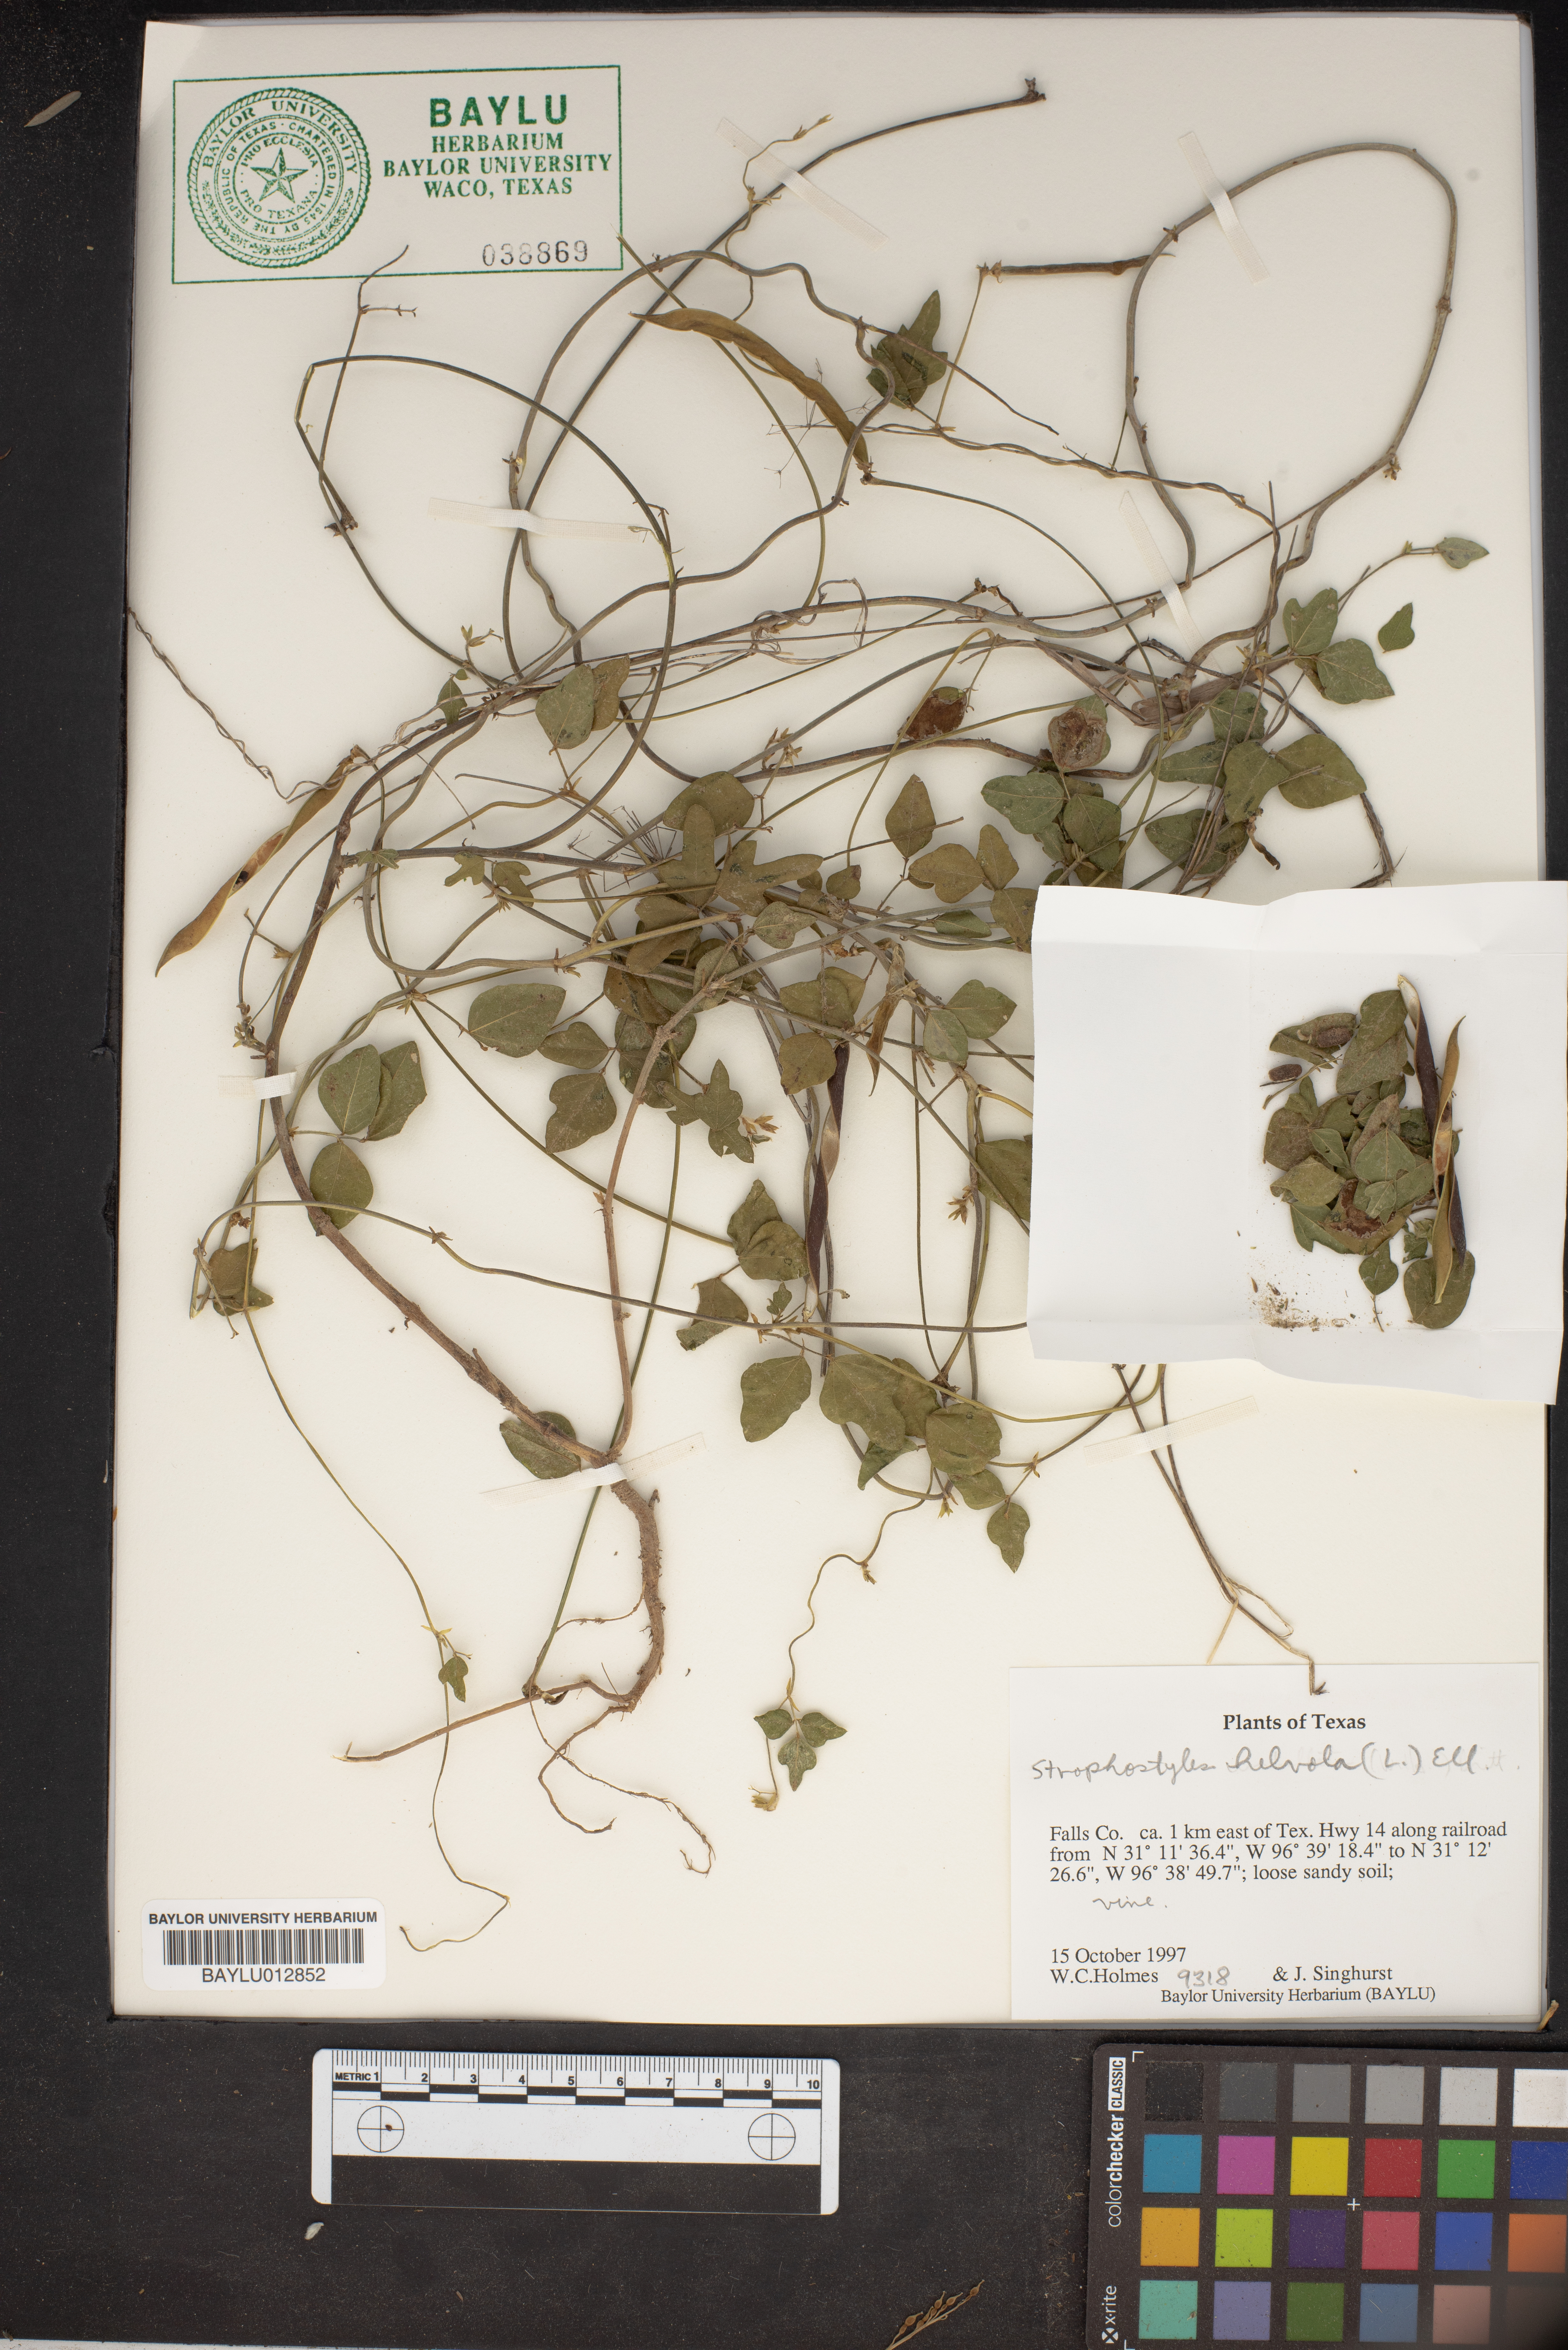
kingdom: Plantae
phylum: Tracheophyta
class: Magnoliopsida
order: Fabales
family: Fabaceae
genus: Strophostyles
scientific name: Strophostyles helvola
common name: Trailing wild bean
